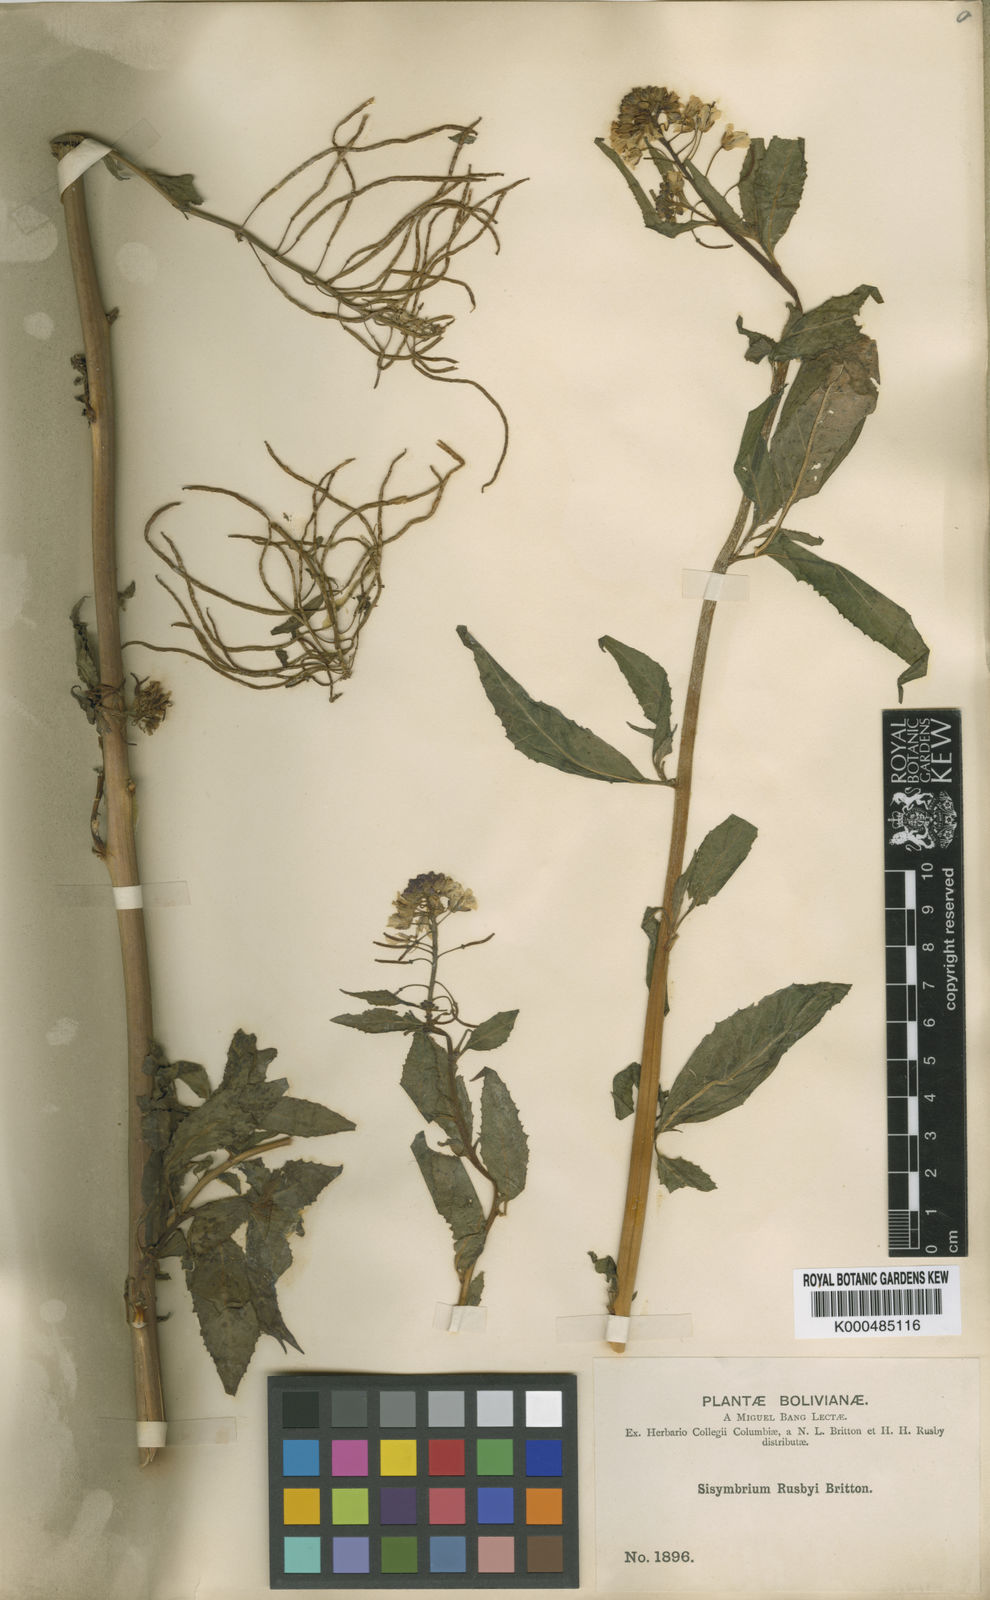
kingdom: Plantae
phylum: Tracheophyta
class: Magnoliopsida
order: Brassicales
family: Brassicaceae
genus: Polypsecadium
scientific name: Polypsecadium rusbyi
